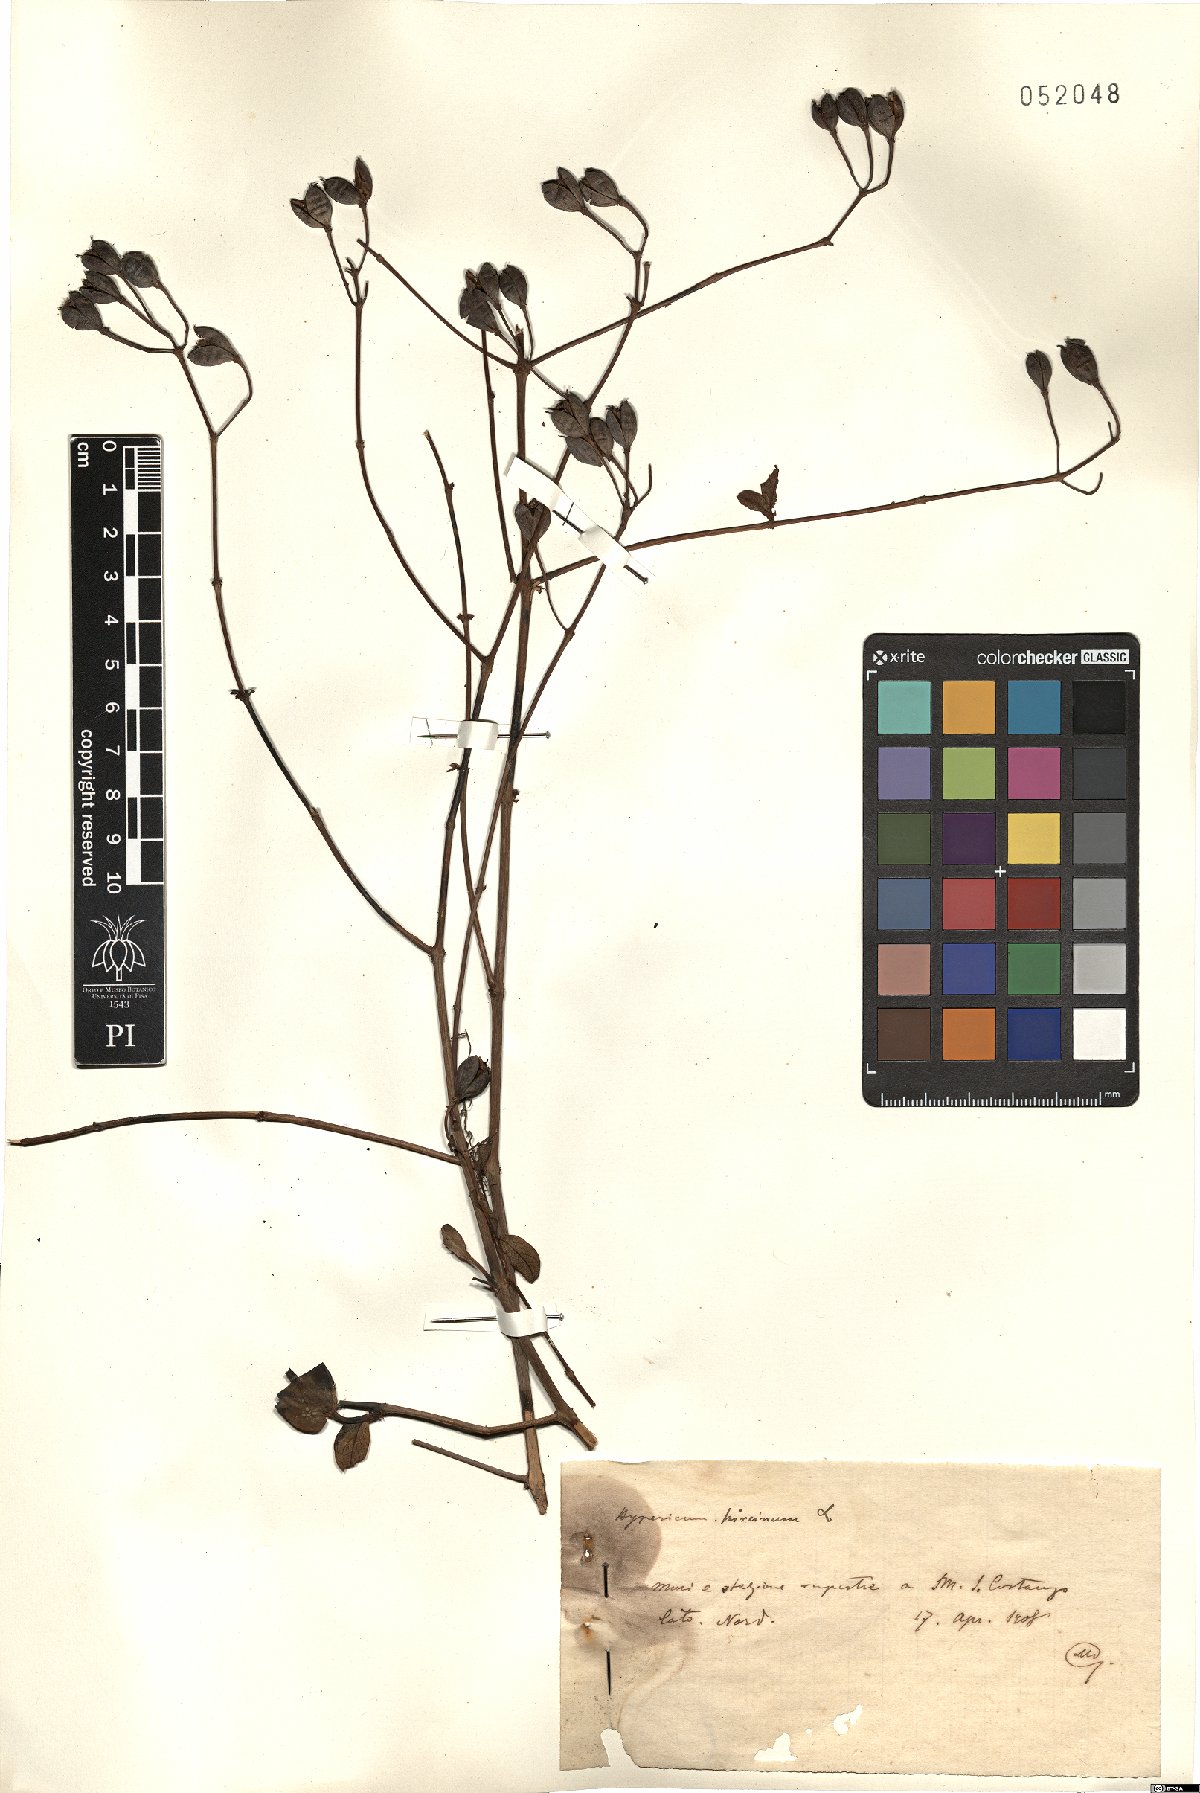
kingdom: Plantae
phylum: Tracheophyta
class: Magnoliopsida
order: Malpighiales
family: Hypericaceae
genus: Hypericum
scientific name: Hypericum hircinum
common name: Stinking tutsan
